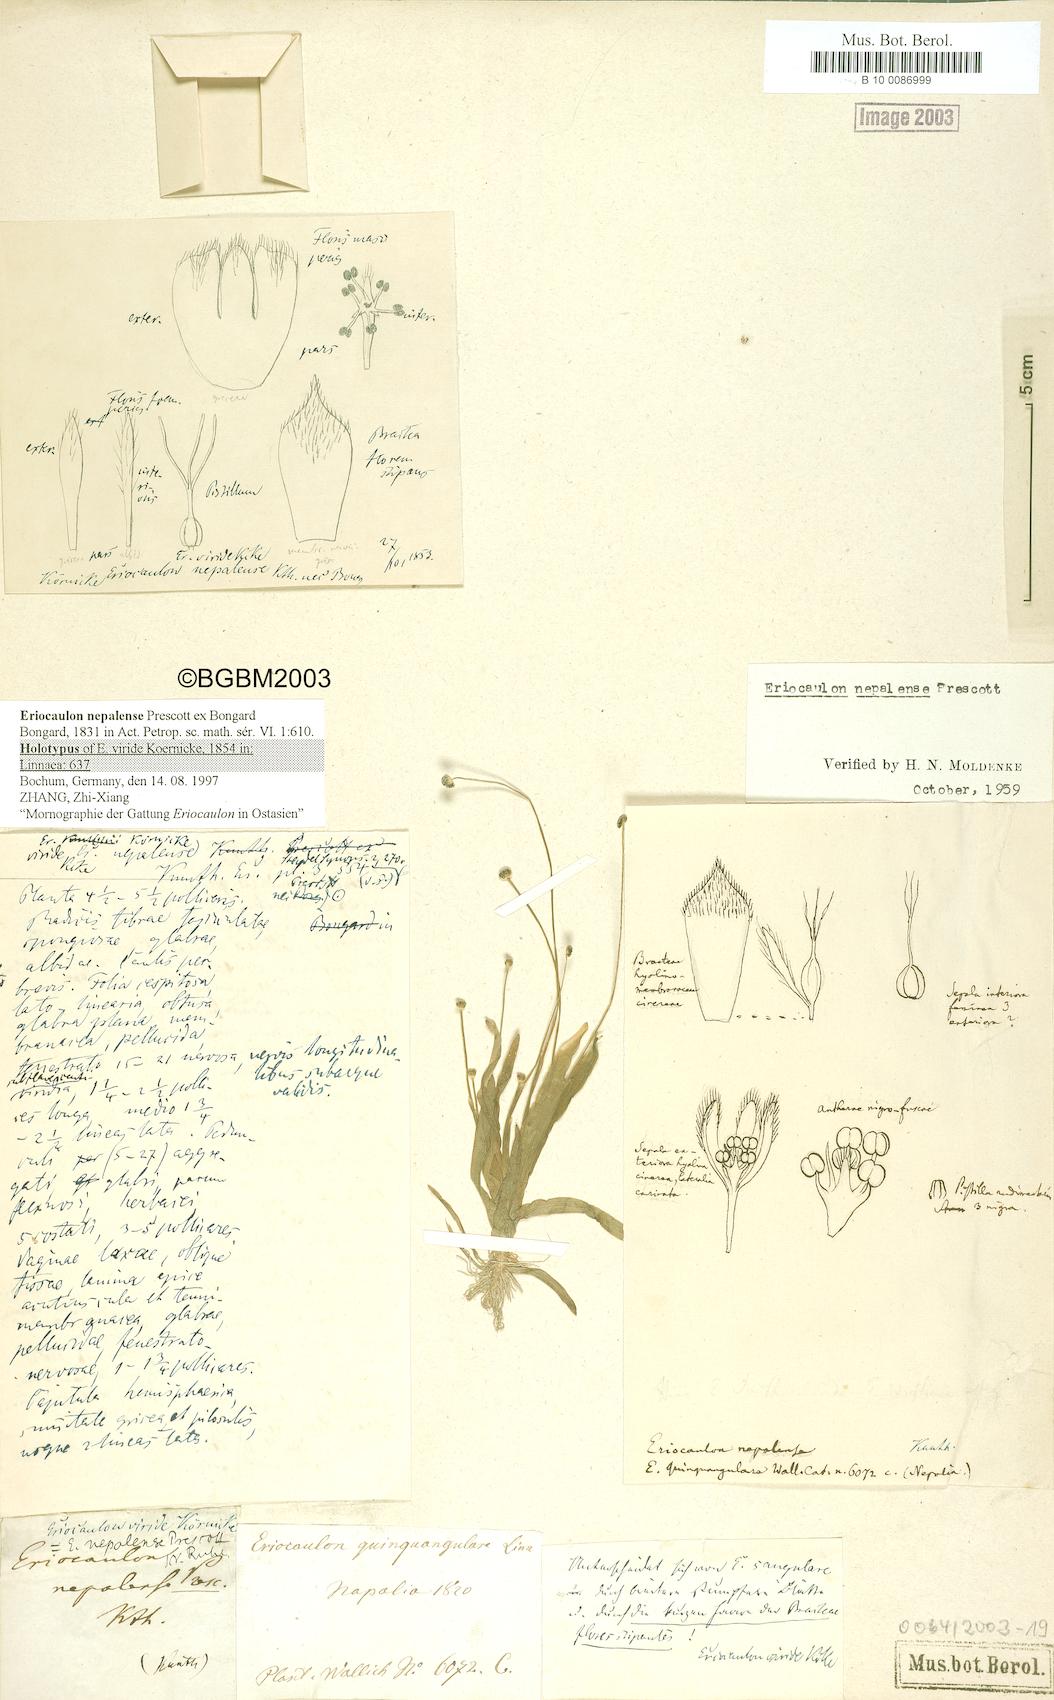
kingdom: Plantae
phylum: Tracheophyta
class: Liliopsida
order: Poales
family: Eriocaulaceae
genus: Eriocaulon
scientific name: Eriocaulon nepalense
